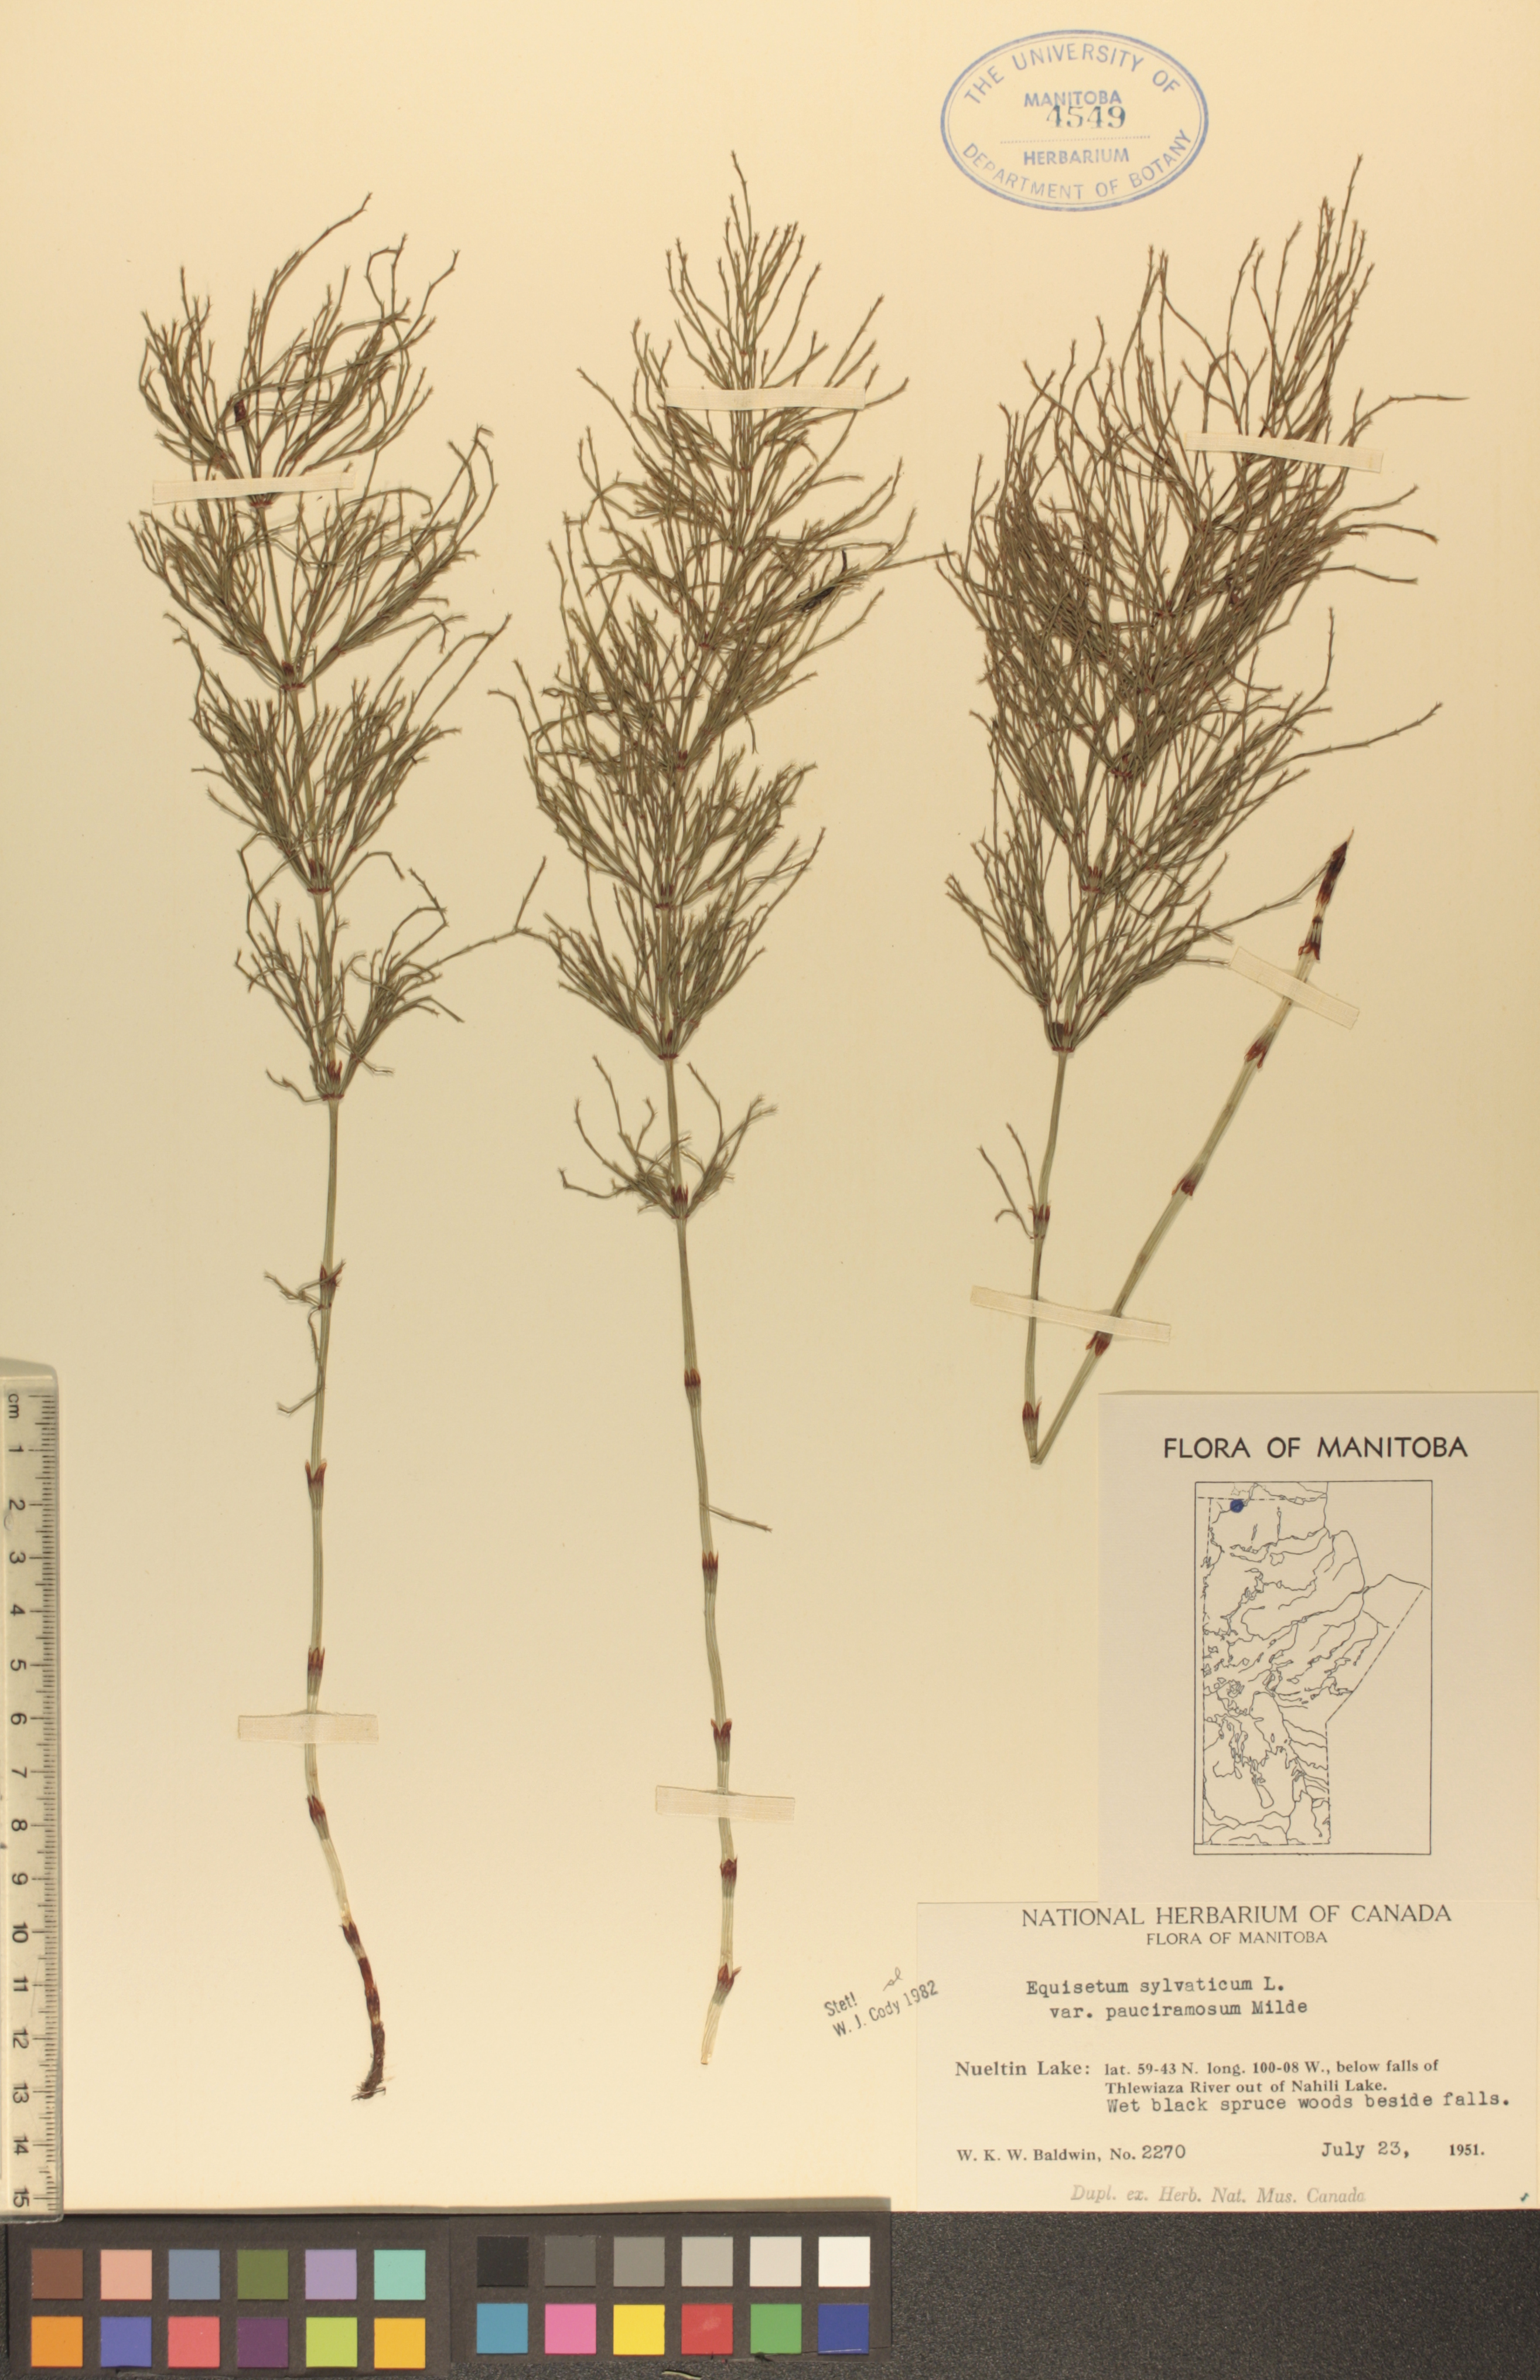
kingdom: Plantae
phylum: Tracheophyta
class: Polypodiopsida
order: Equisetales
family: Equisetaceae
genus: Equisetum
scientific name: Equisetum sylvaticum
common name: Wood horsetail
